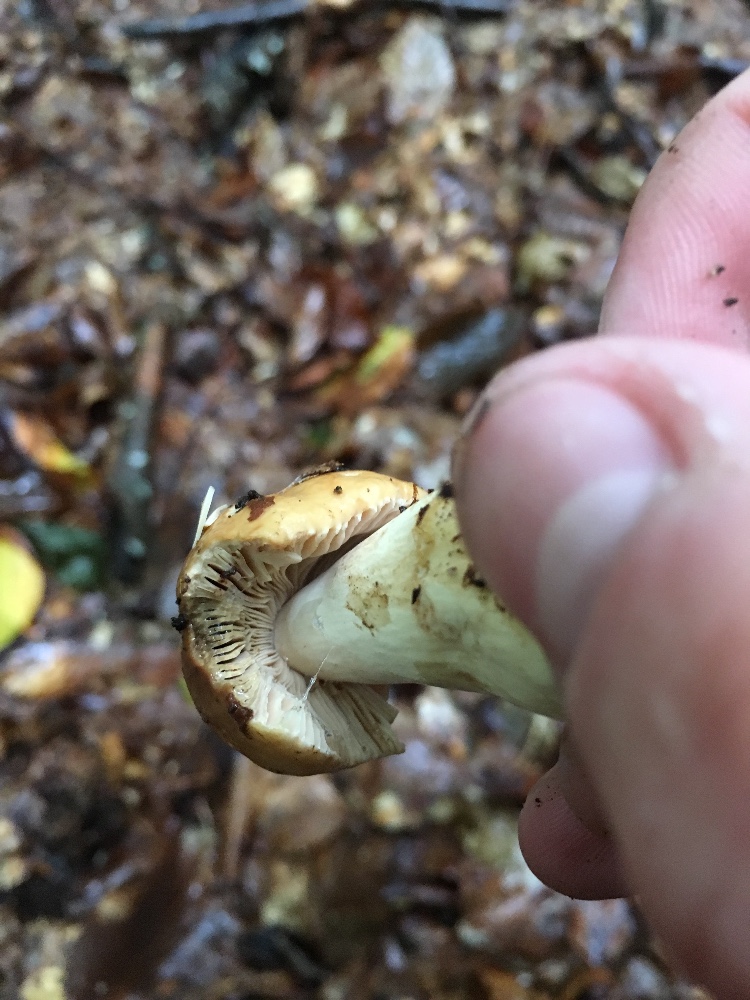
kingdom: Fungi
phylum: Basidiomycota
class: Agaricomycetes
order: Russulales
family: Russulaceae
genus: Russula
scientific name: Russula fellea
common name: galde-skørhat
